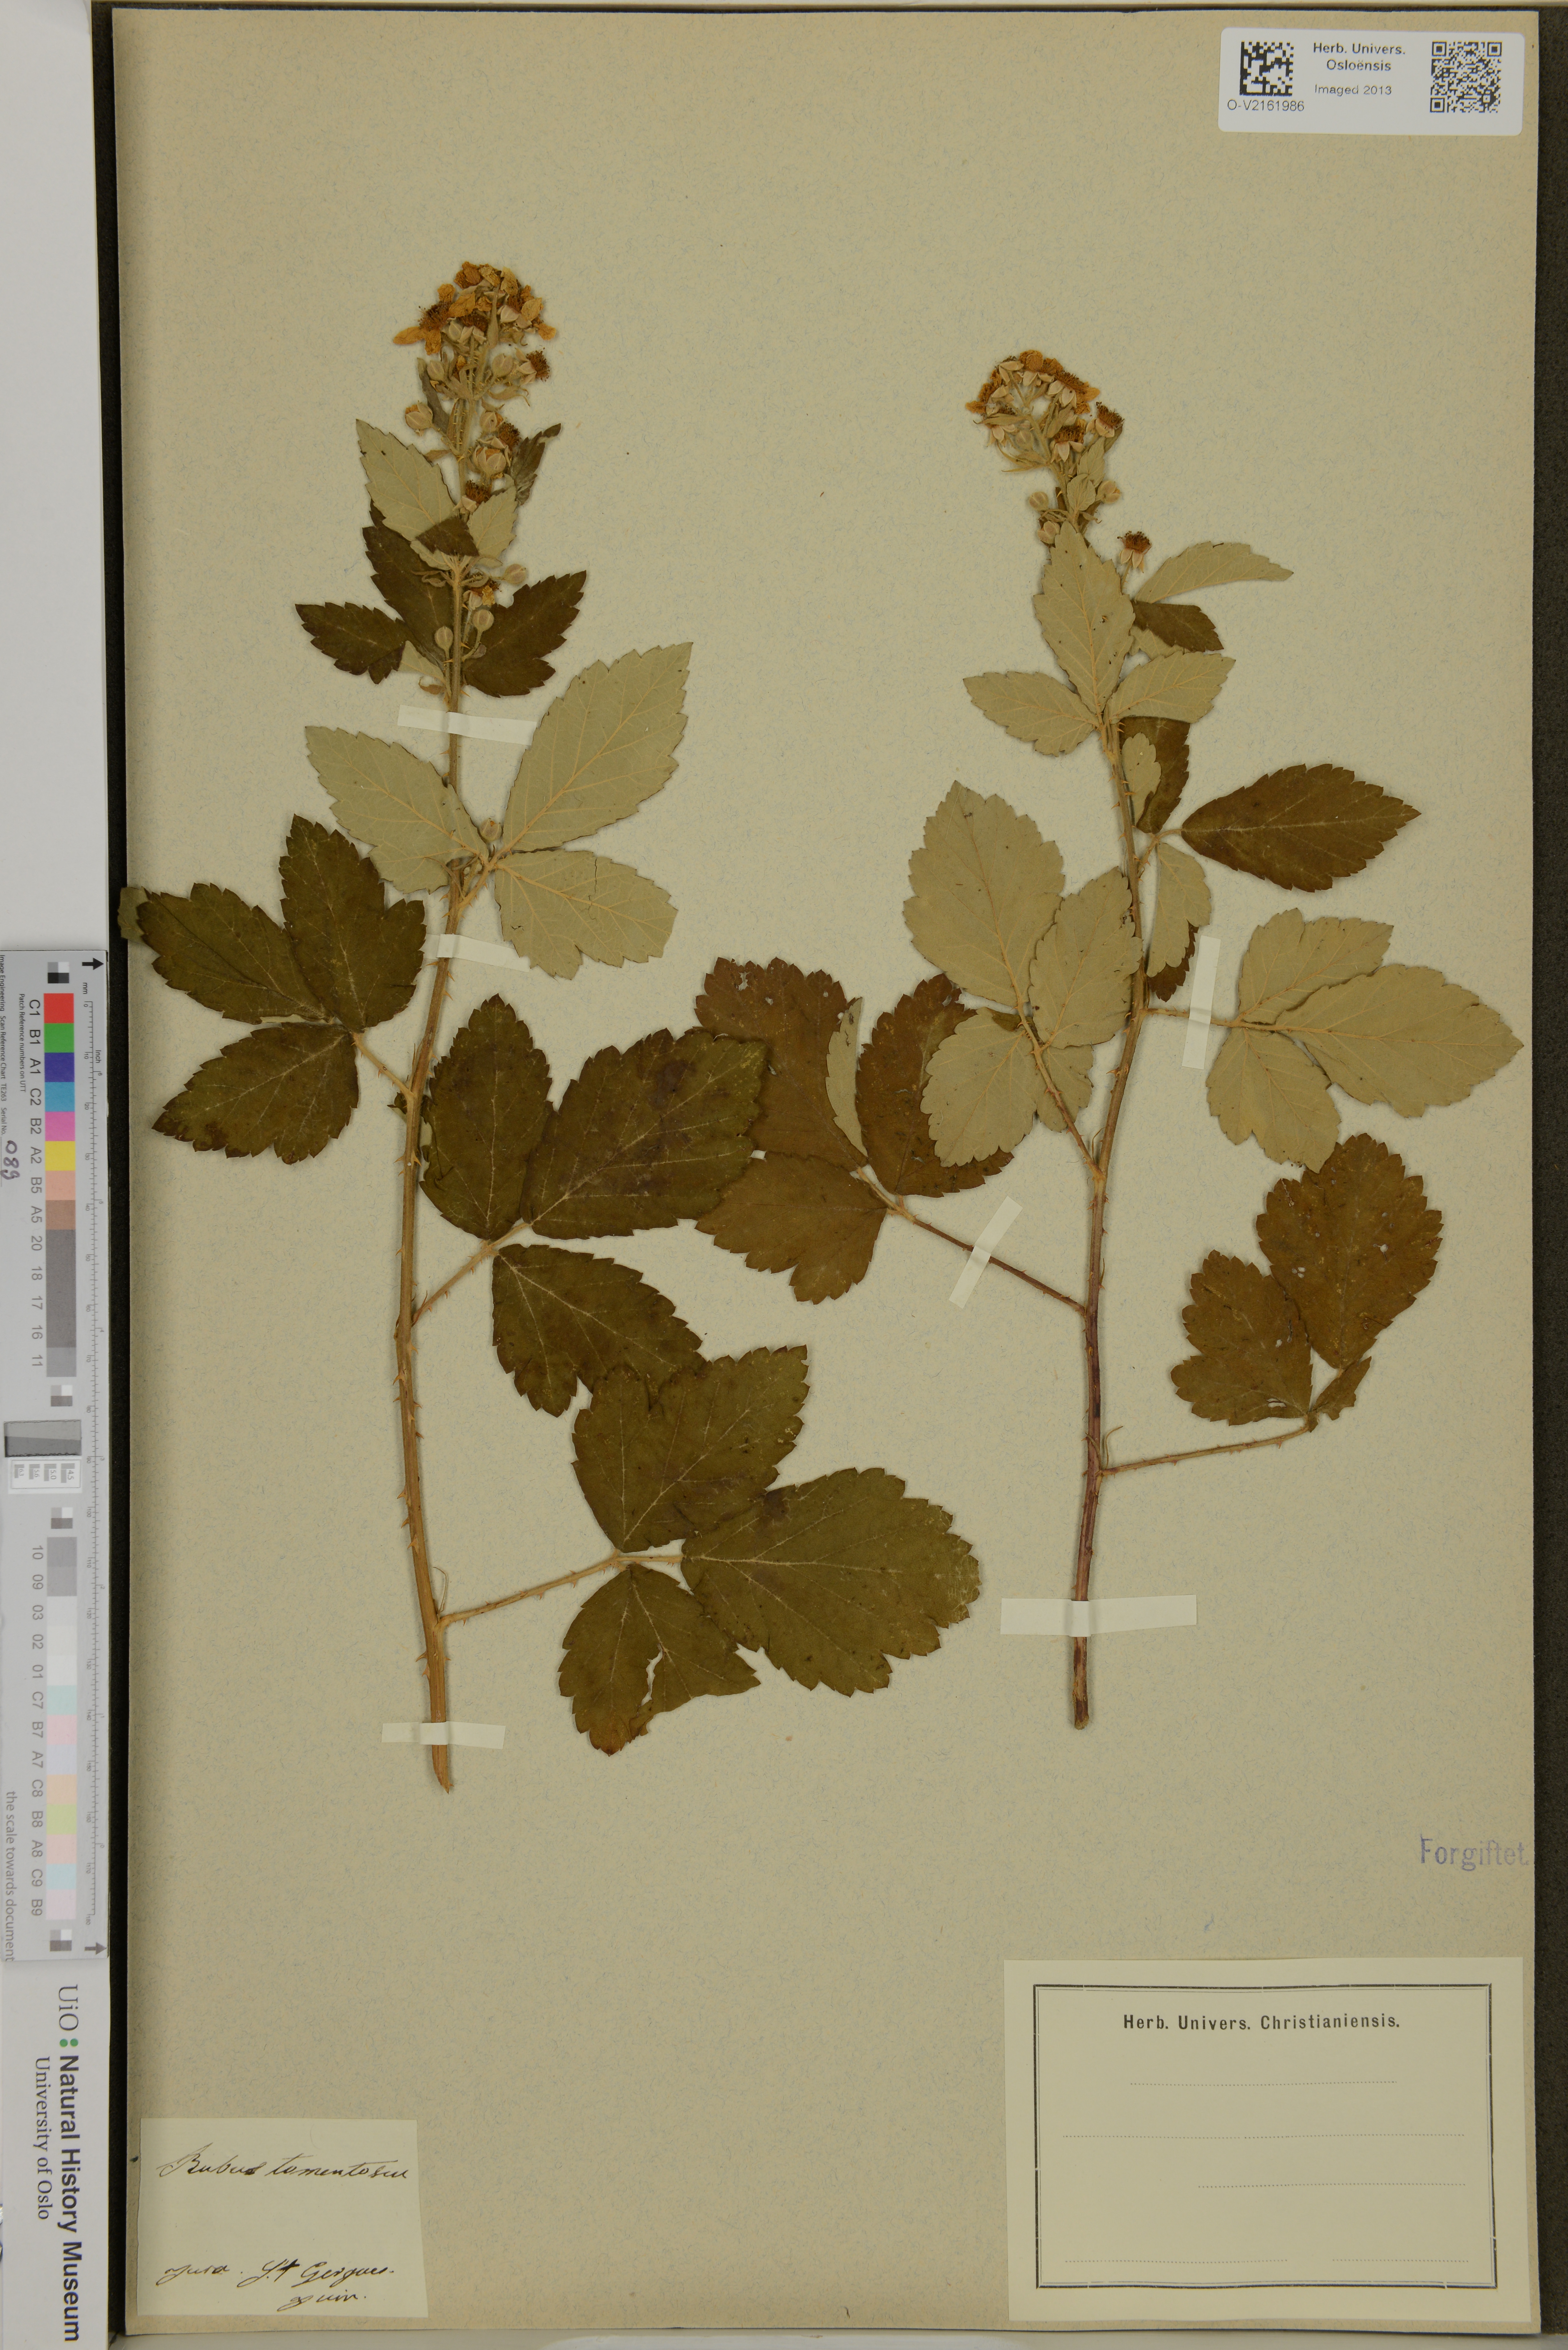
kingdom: Plantae
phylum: Tracheophyta
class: Magnoliopsida
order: Rosales
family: Rosaceae
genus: Rubus
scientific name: Rubus canescens
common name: Wooly blackberry
